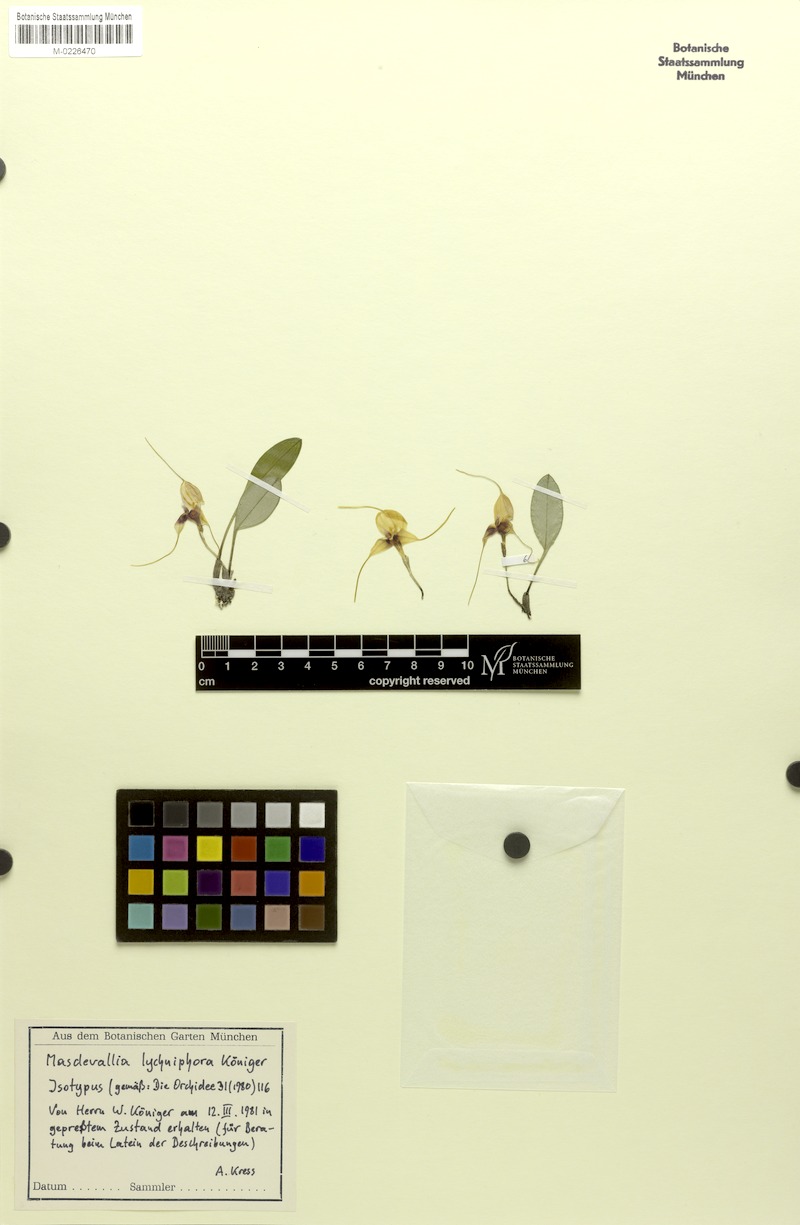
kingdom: Plantae
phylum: Tracheophyta
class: Liliopsida
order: Asparagales
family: Orchidaceae
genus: Masdevallia
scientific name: Masdevallia lychniphora
